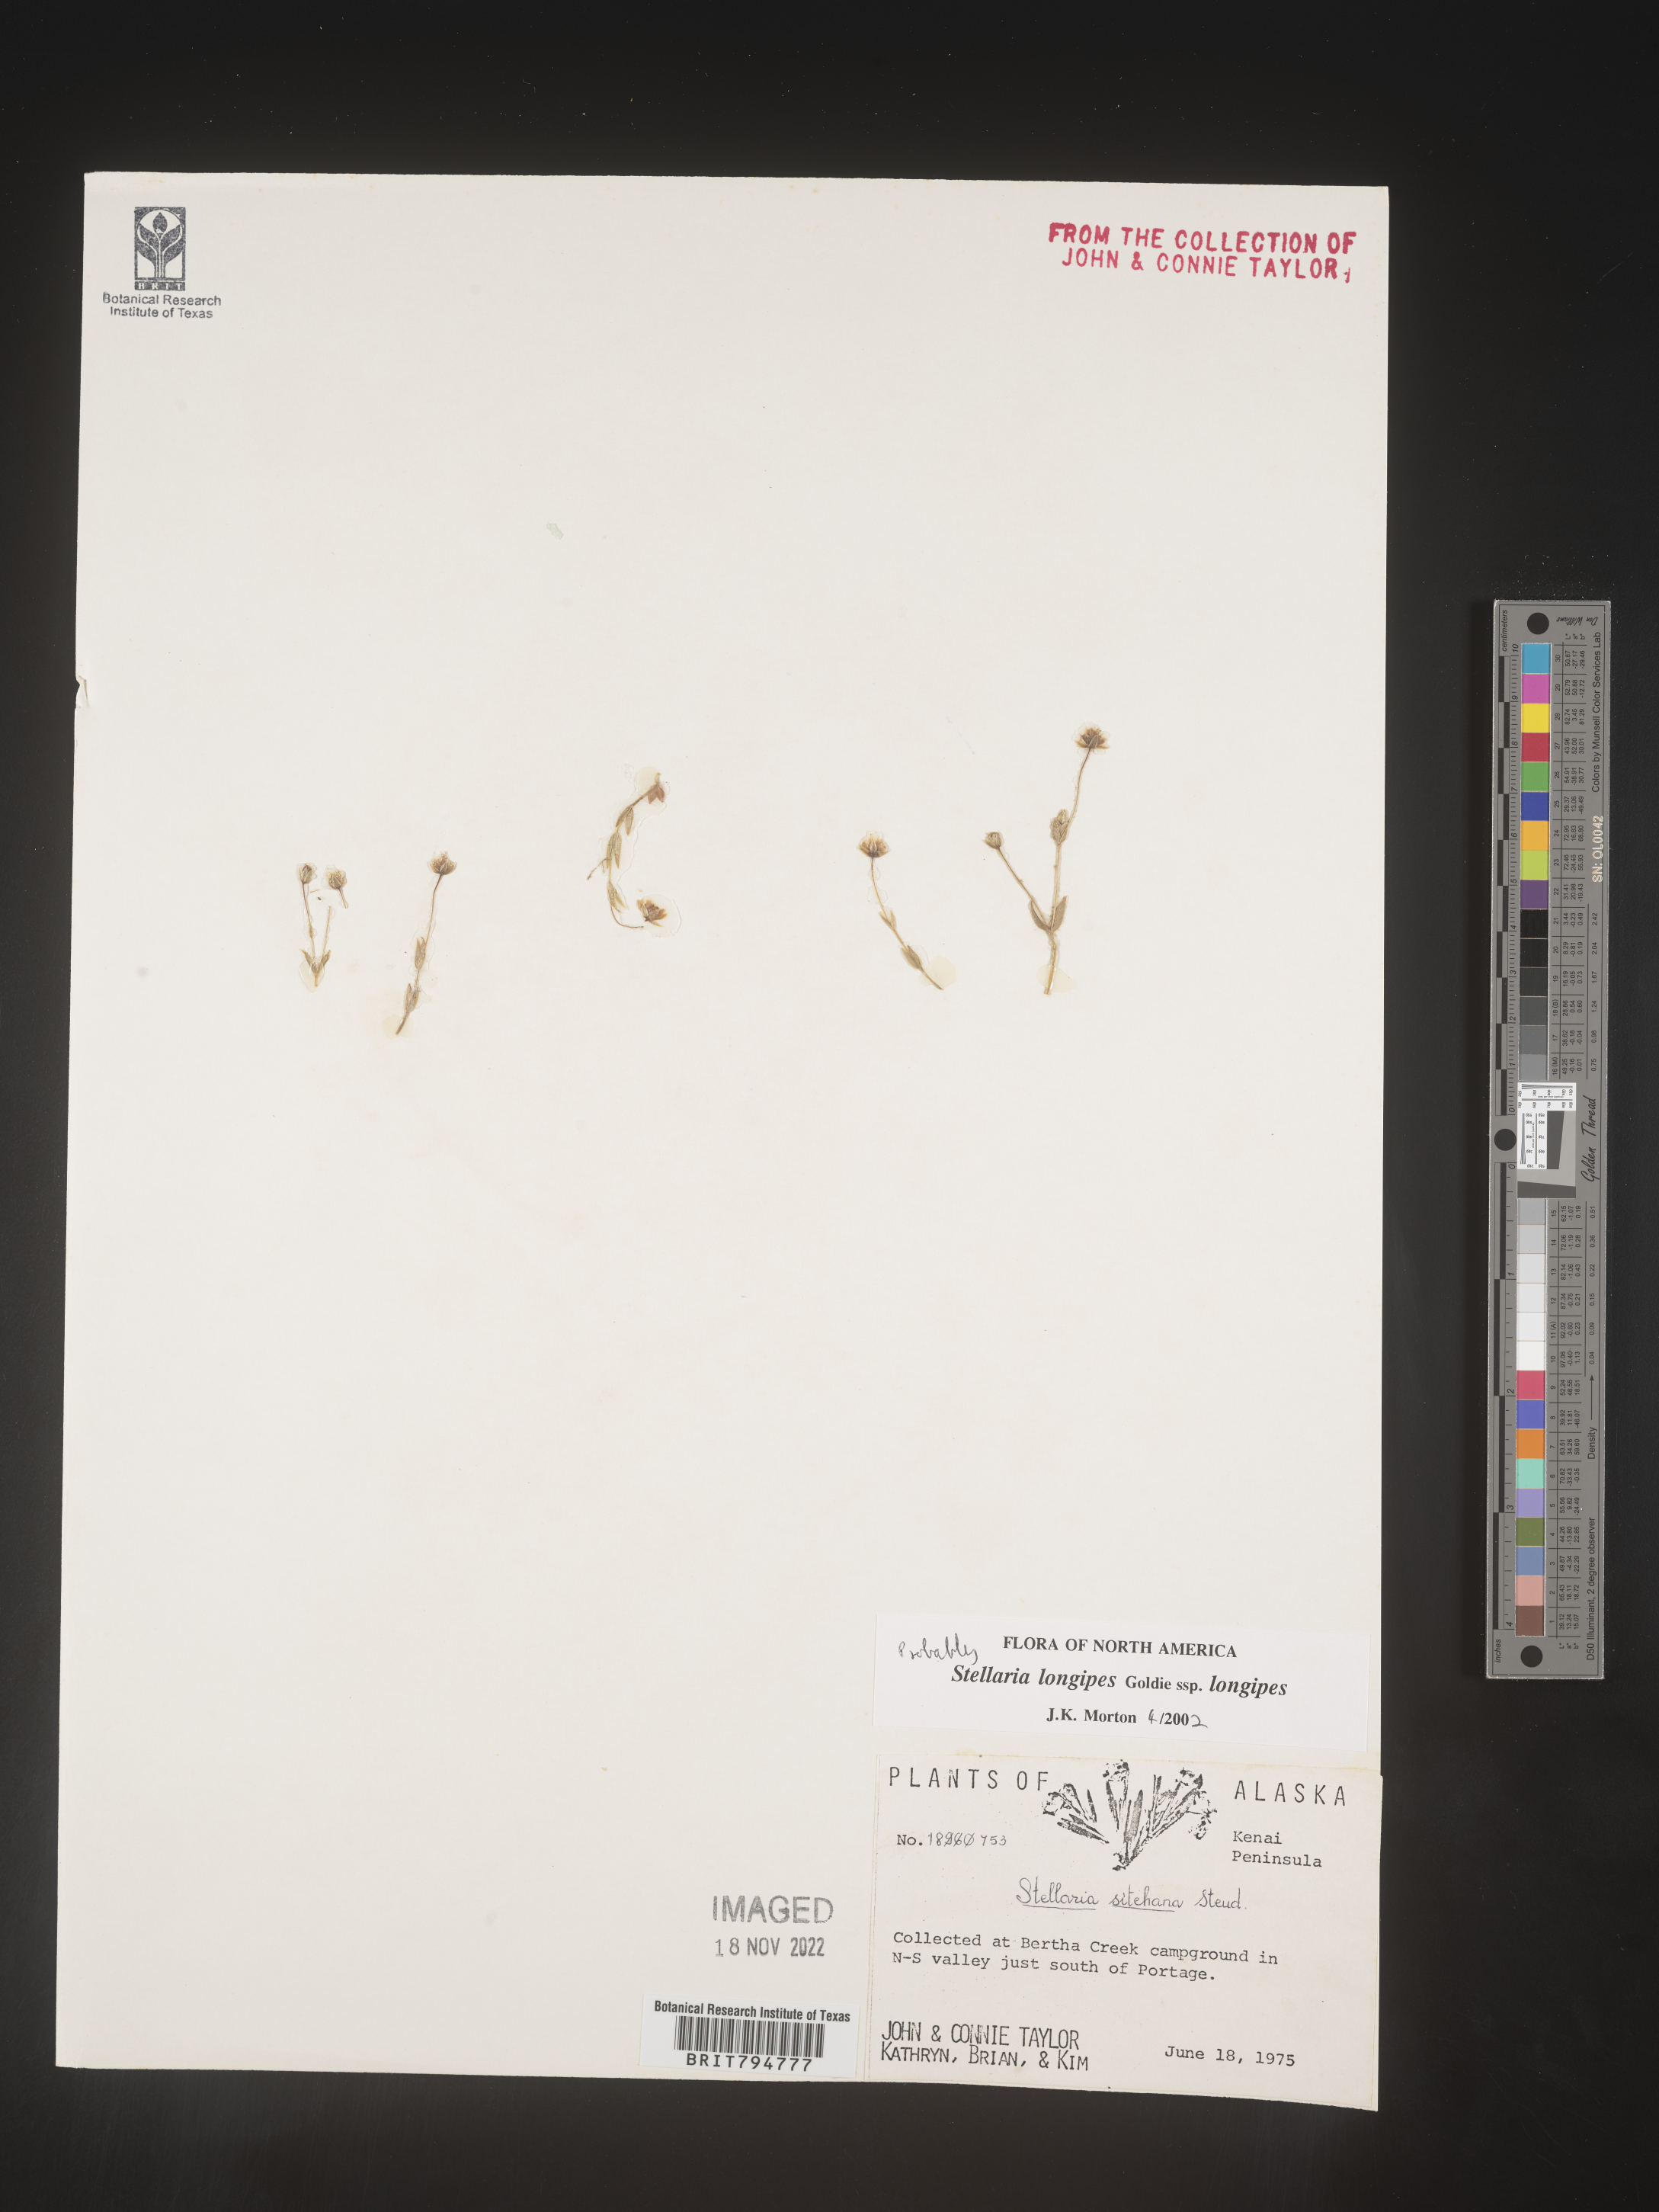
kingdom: Plantae
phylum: Tracheophyta
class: Magnoliopsida
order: Caryophyllales
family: Caryophyllaceae
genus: Stellaria
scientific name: Stellaria longipes
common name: Goldie's starwort
